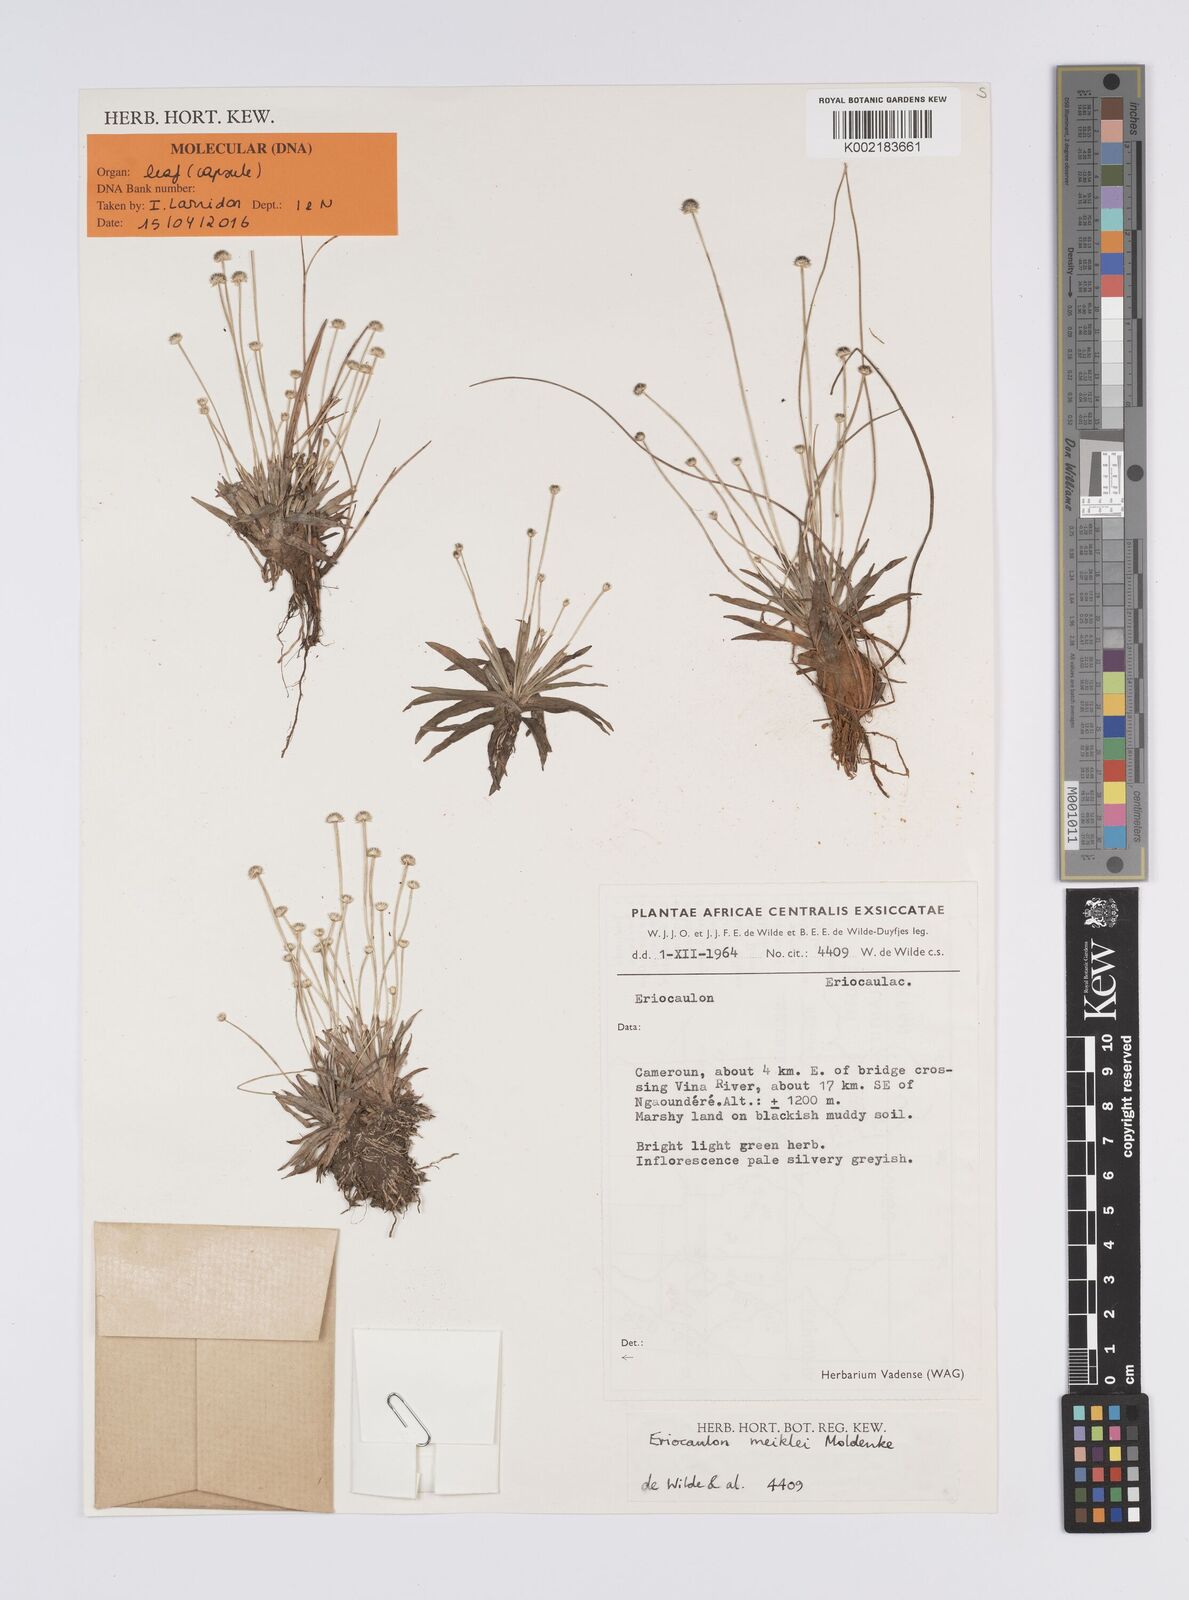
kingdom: Plantae
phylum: Tracheophyta
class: Liliopsida
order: Poales
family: Eriocaulaceae
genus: Eriocaulon
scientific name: Eriocaulon meiklei
